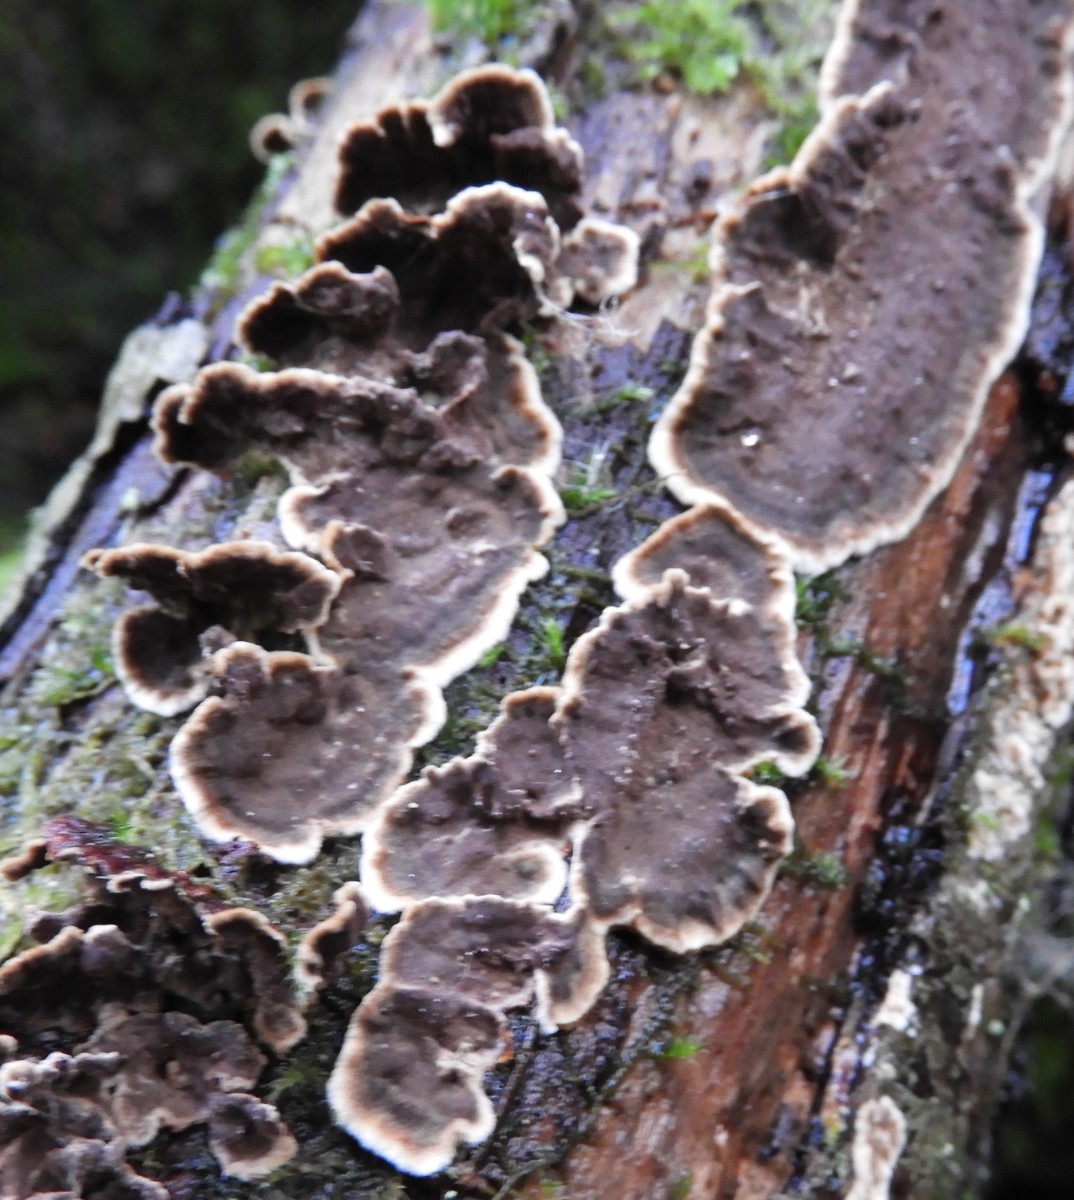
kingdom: Fungi
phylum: Basidiomycota
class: Agaricomycetes
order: Hymenochaetales
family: Hymenochaetaceae
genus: Hydnoporia
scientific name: Hydnoporia tabacina
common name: tobaksbrun ruslædersvamp
